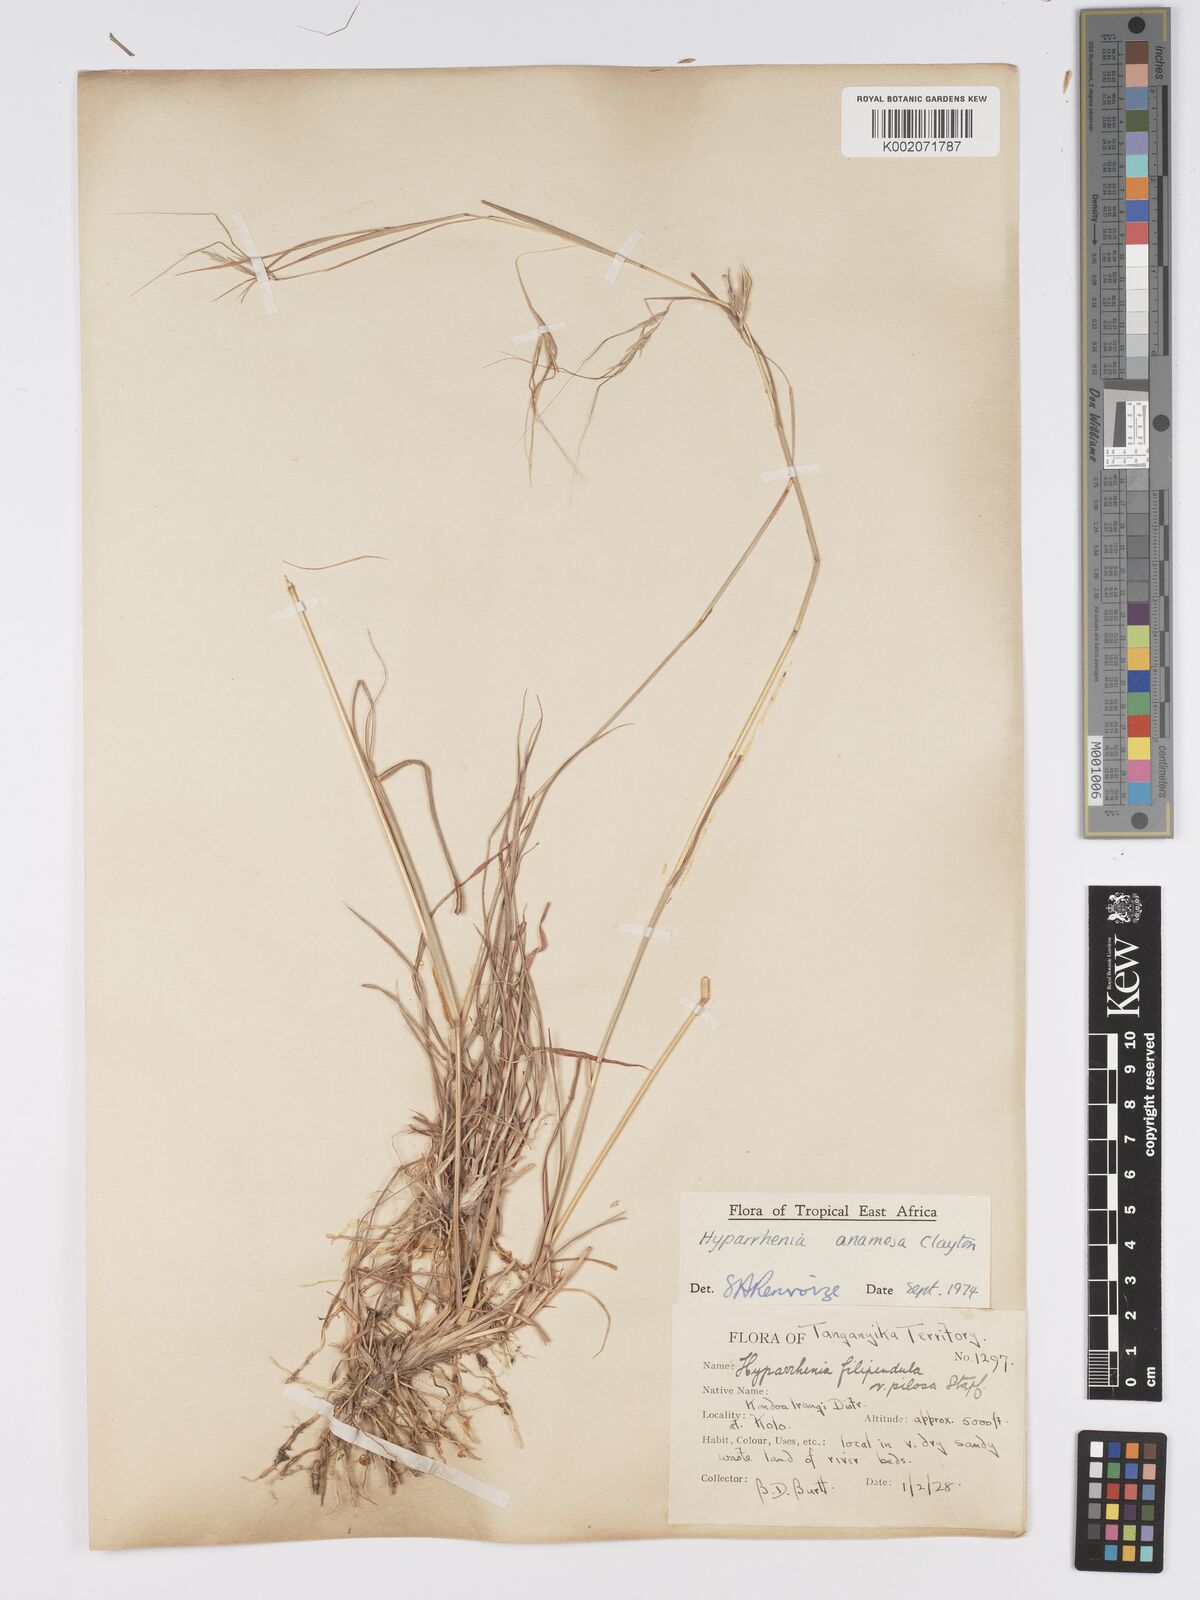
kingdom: Plantae
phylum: Tracheophyta
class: Liliopsida
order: Poales
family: Poaceae
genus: Hyparrhenia
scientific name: Hyparrhenia anamesa
